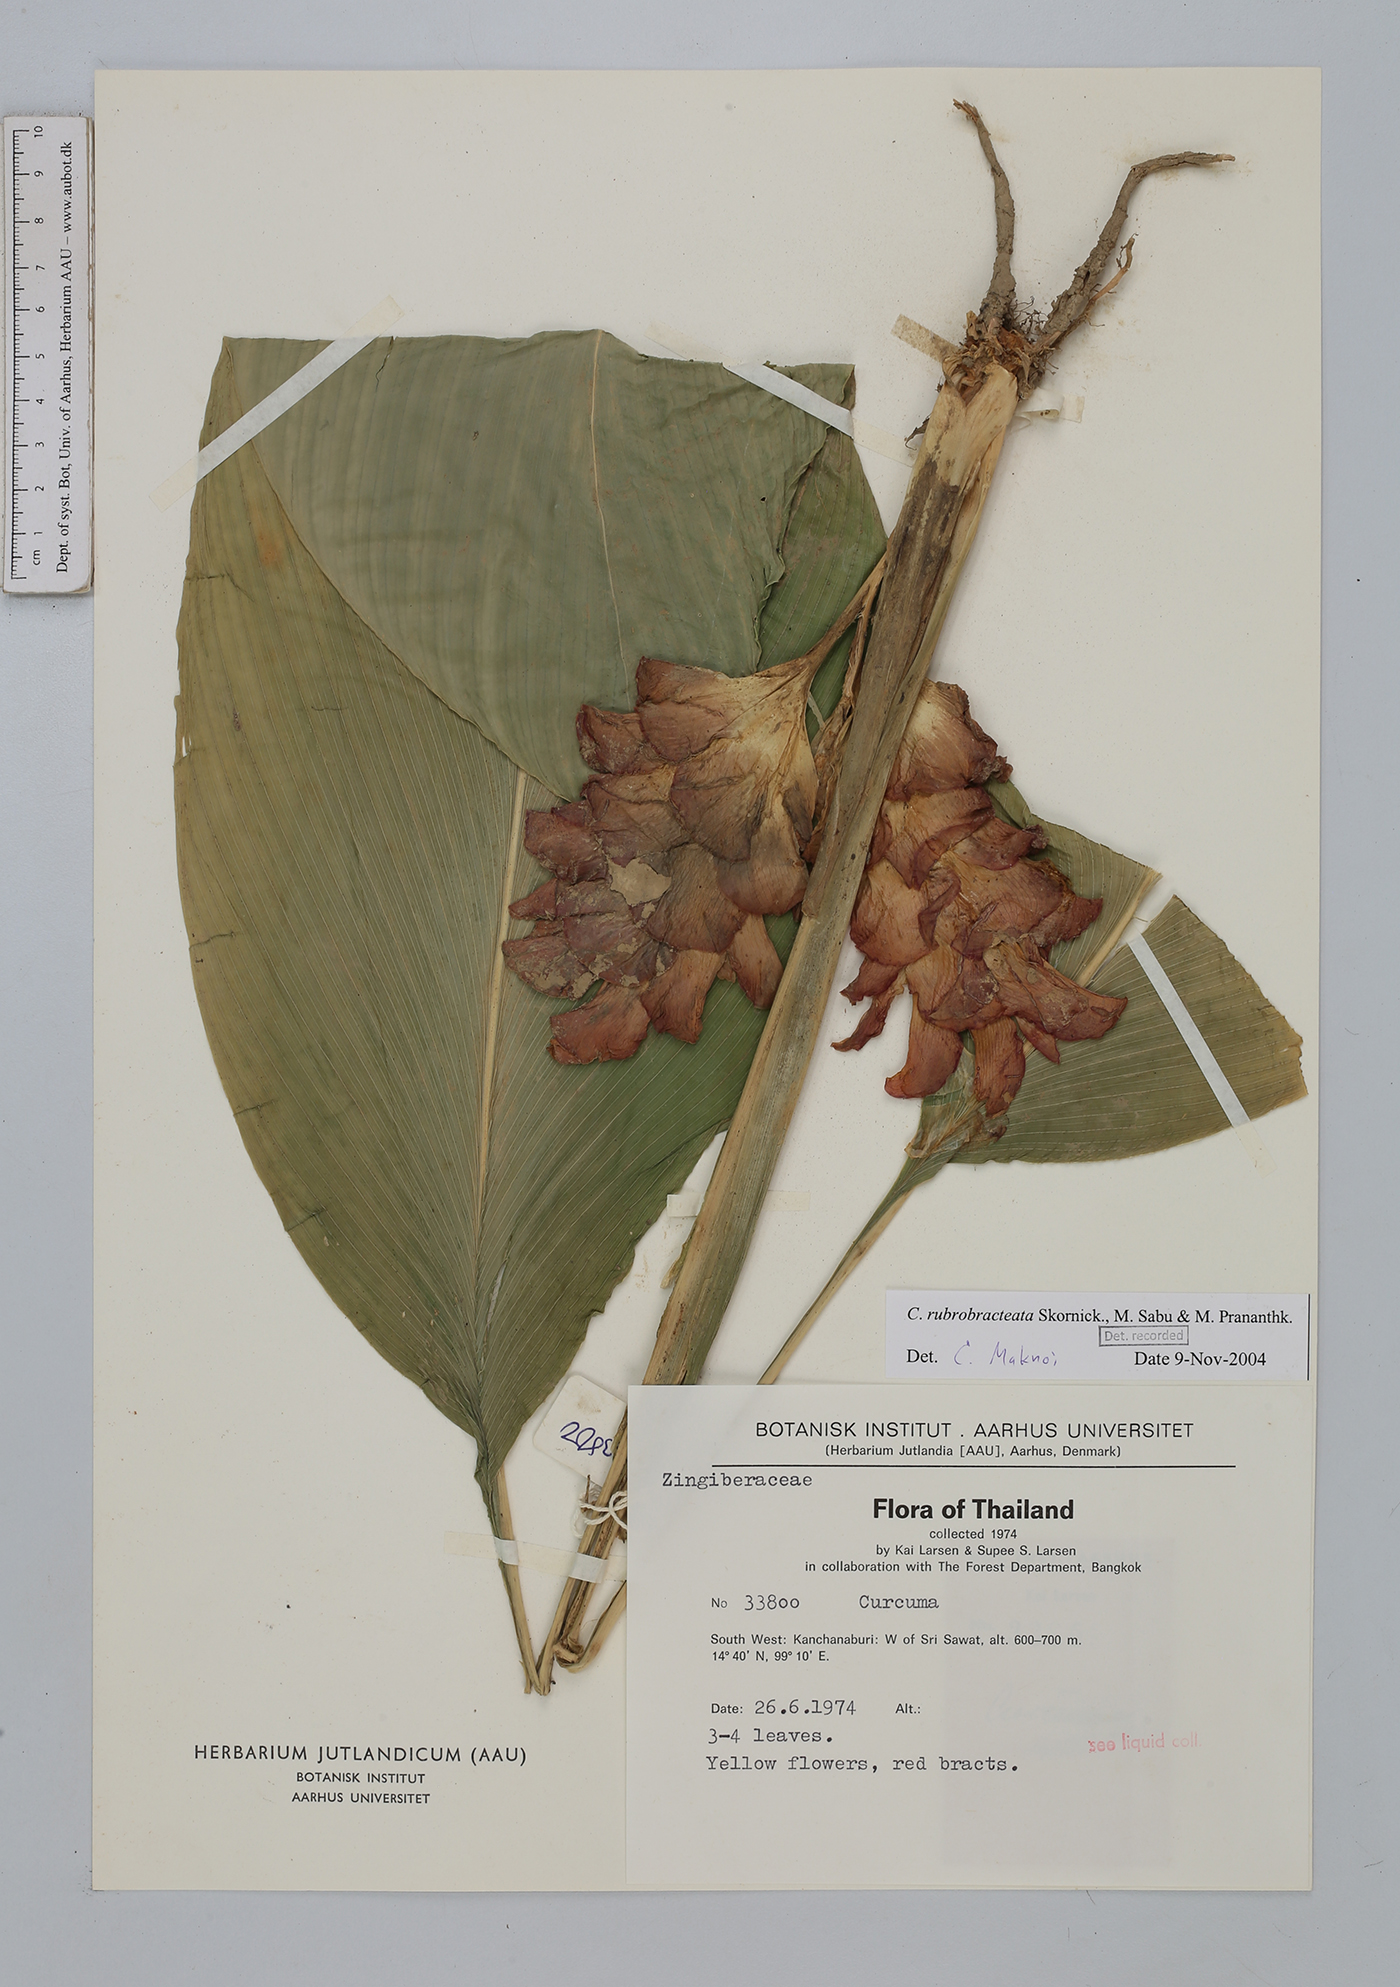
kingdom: Plantae
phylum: Tracheophyta
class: Liliopsida
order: Zingiberales
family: Zingiberaceae
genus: Curcuma
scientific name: Curcuma rubrobracteata
